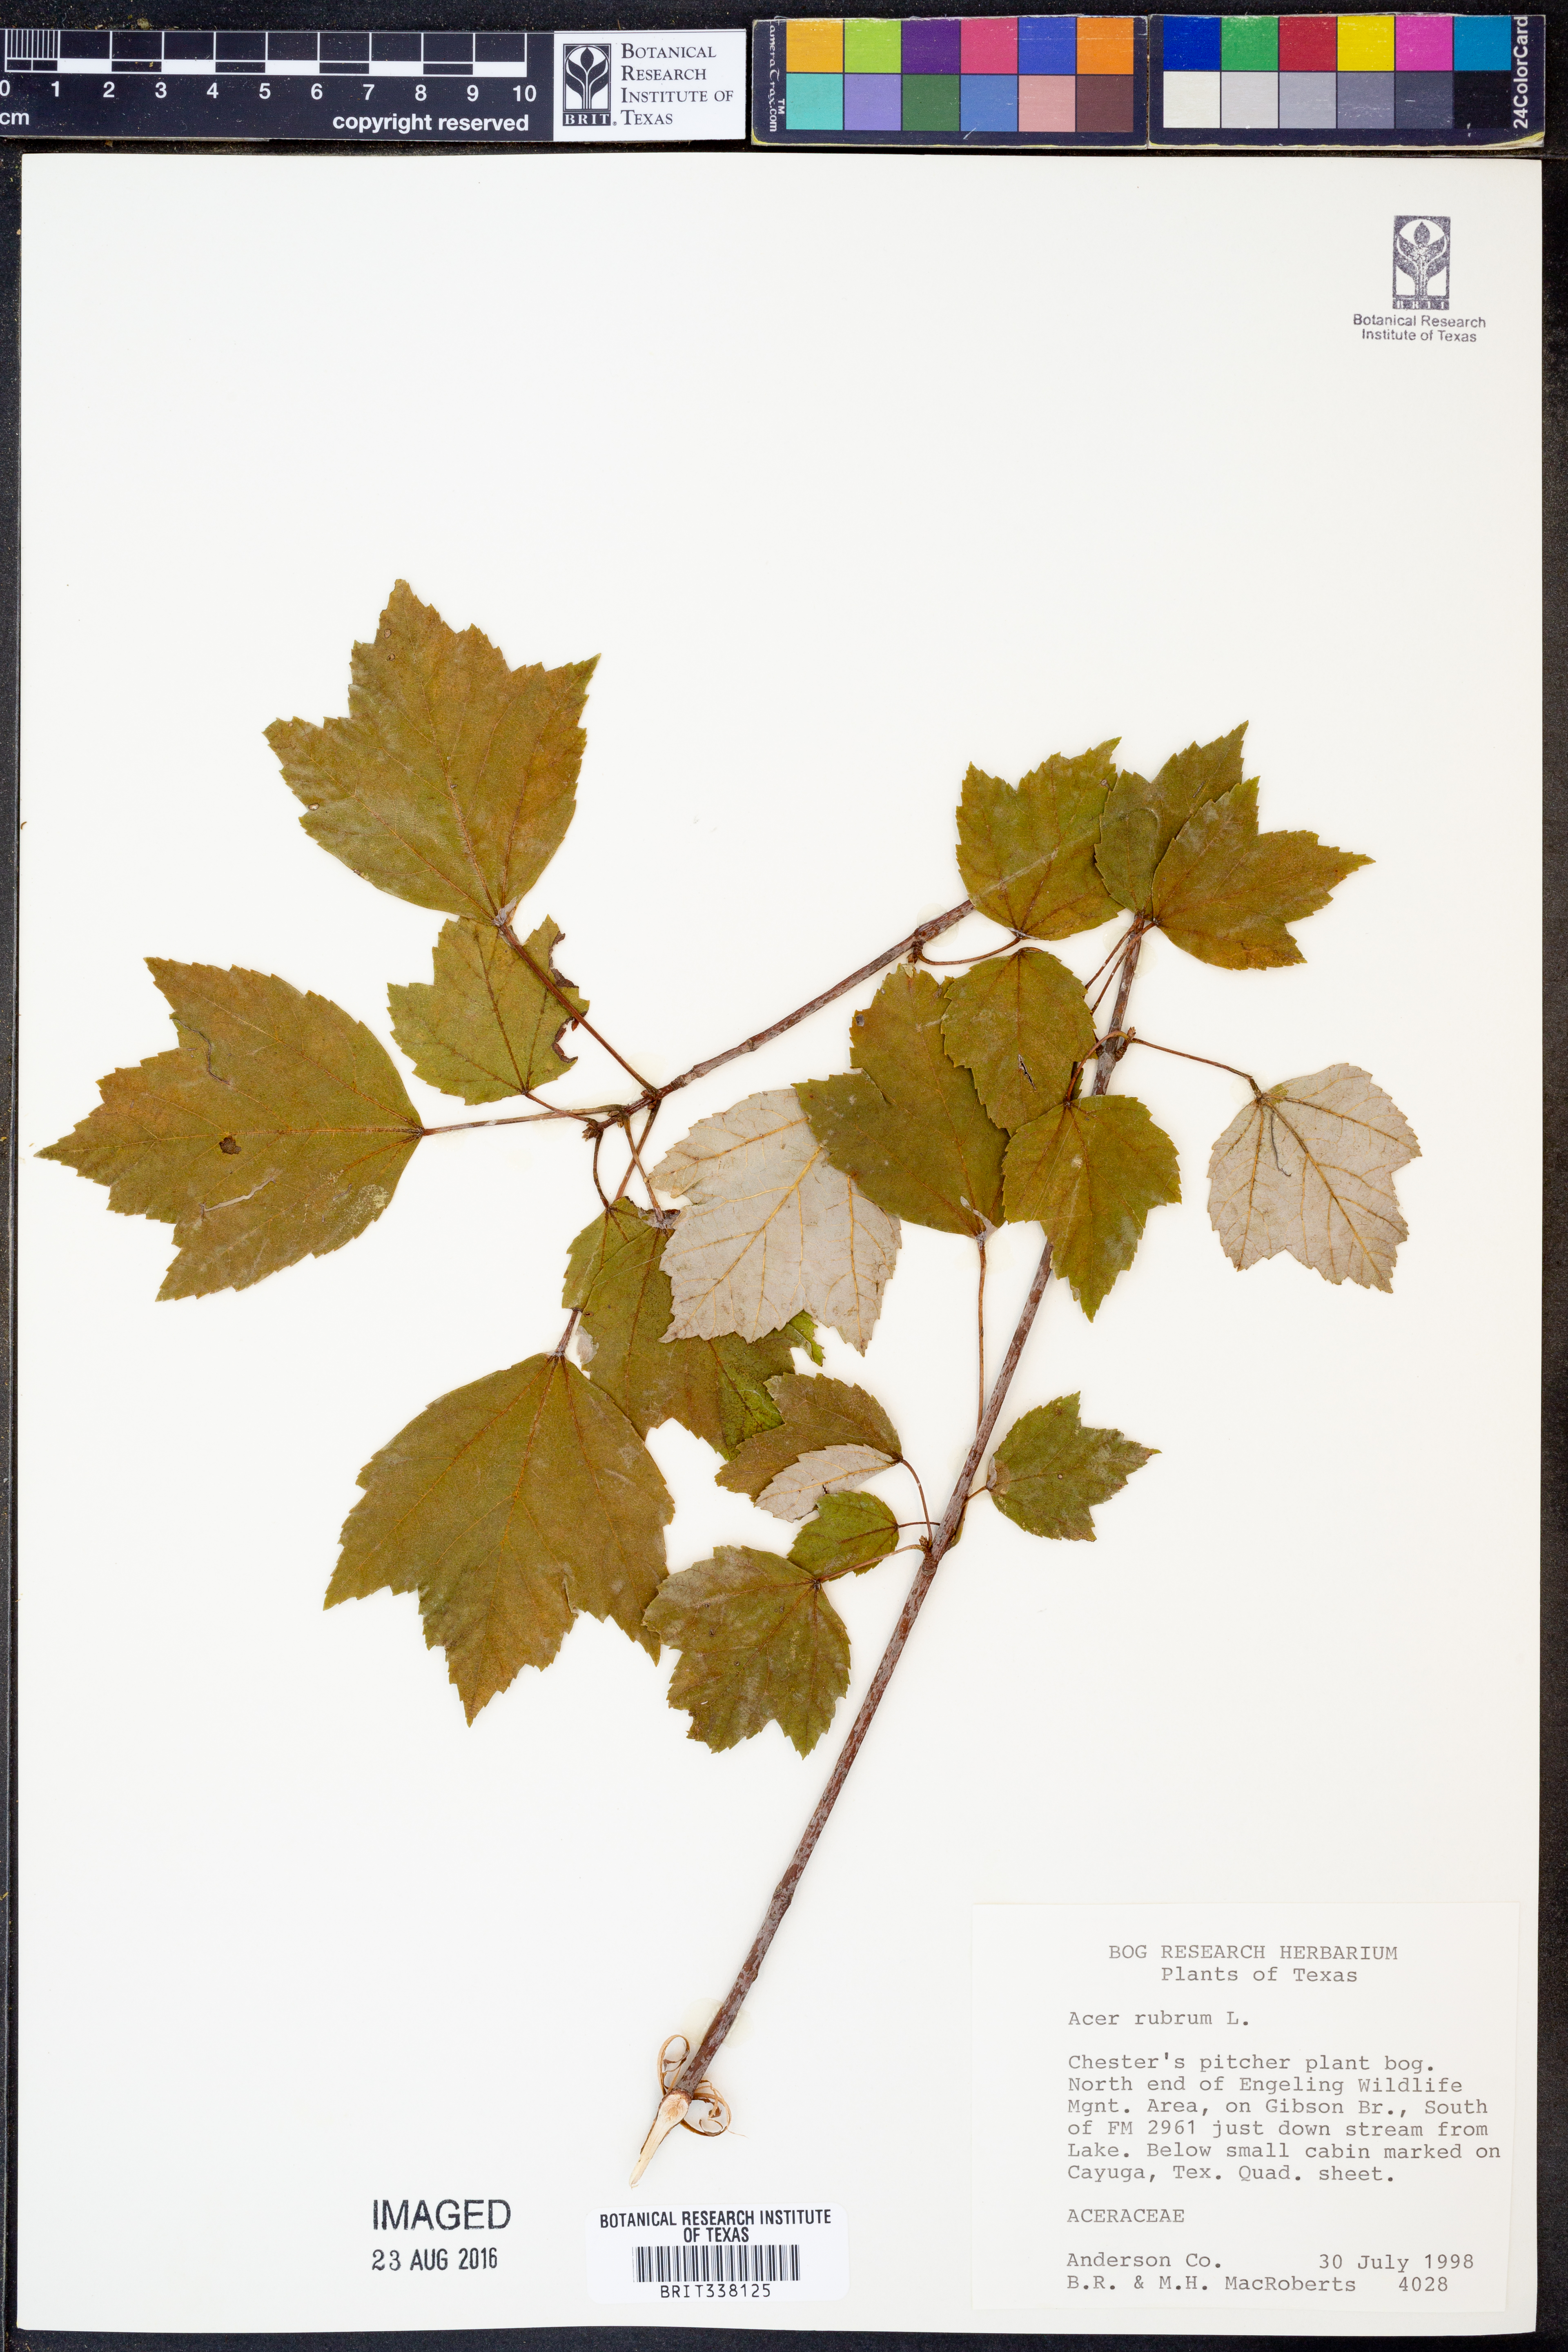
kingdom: Plantae
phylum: Tracheophyta
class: Magnoliopsida
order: Sapindales
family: Sapindaceae
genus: Acer
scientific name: Acer rubrum
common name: Red maple
